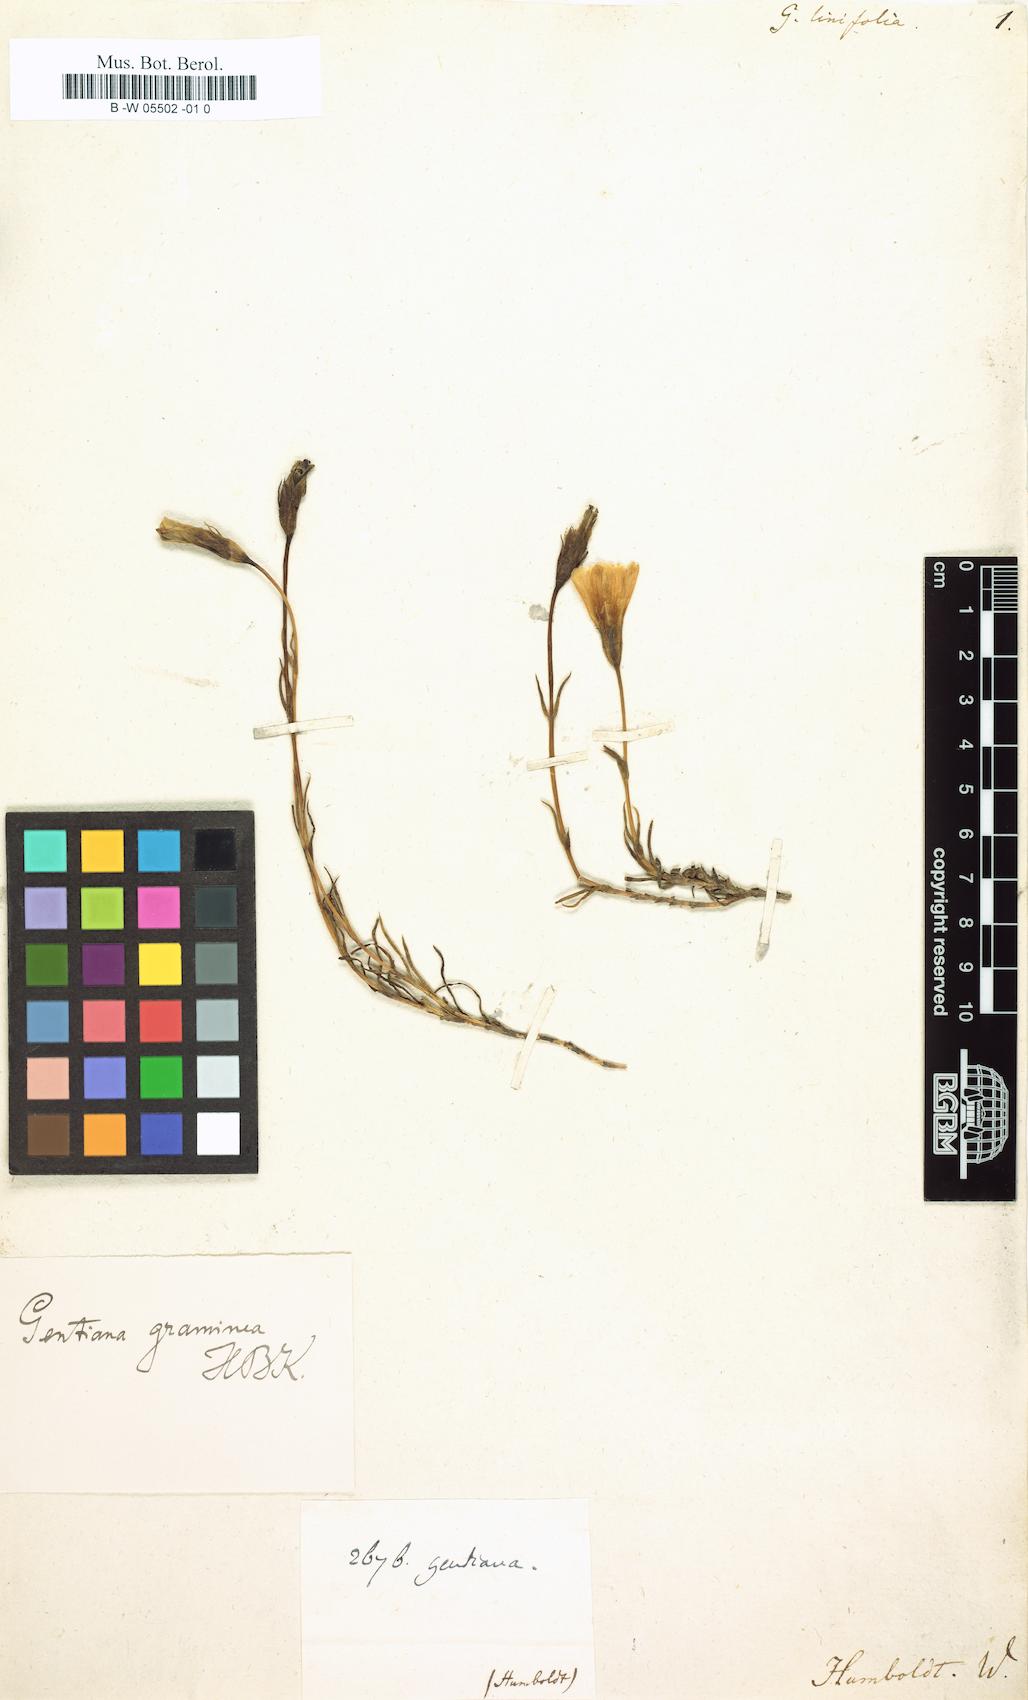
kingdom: Plantae
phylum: Tracheophyta
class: Magnoliopsida
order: Gentianales
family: Gentianaceae
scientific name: Gentianaceae
